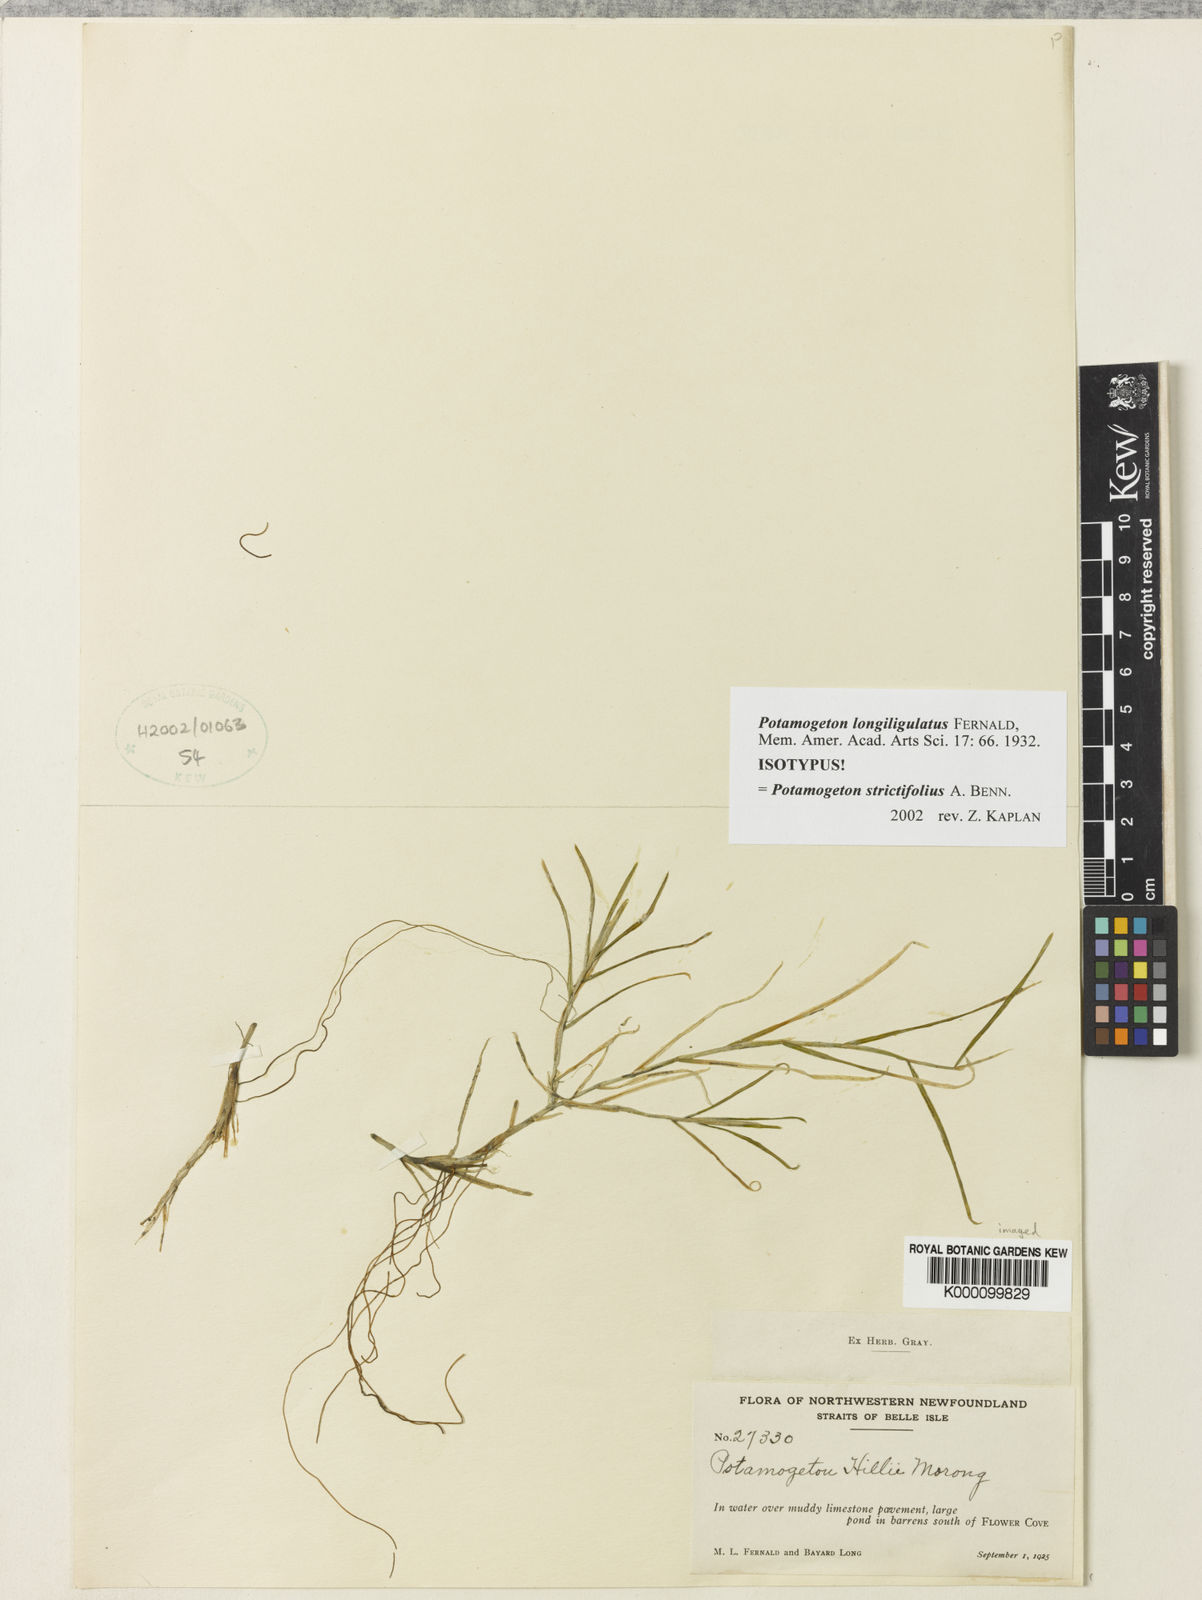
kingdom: Plantae
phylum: Tracheophyta
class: Liliopsida
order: Alismatales
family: Potamogetonaceae
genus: Potamogeton
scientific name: Potamogeton strictifolius
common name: Linear-leaved pondweed
